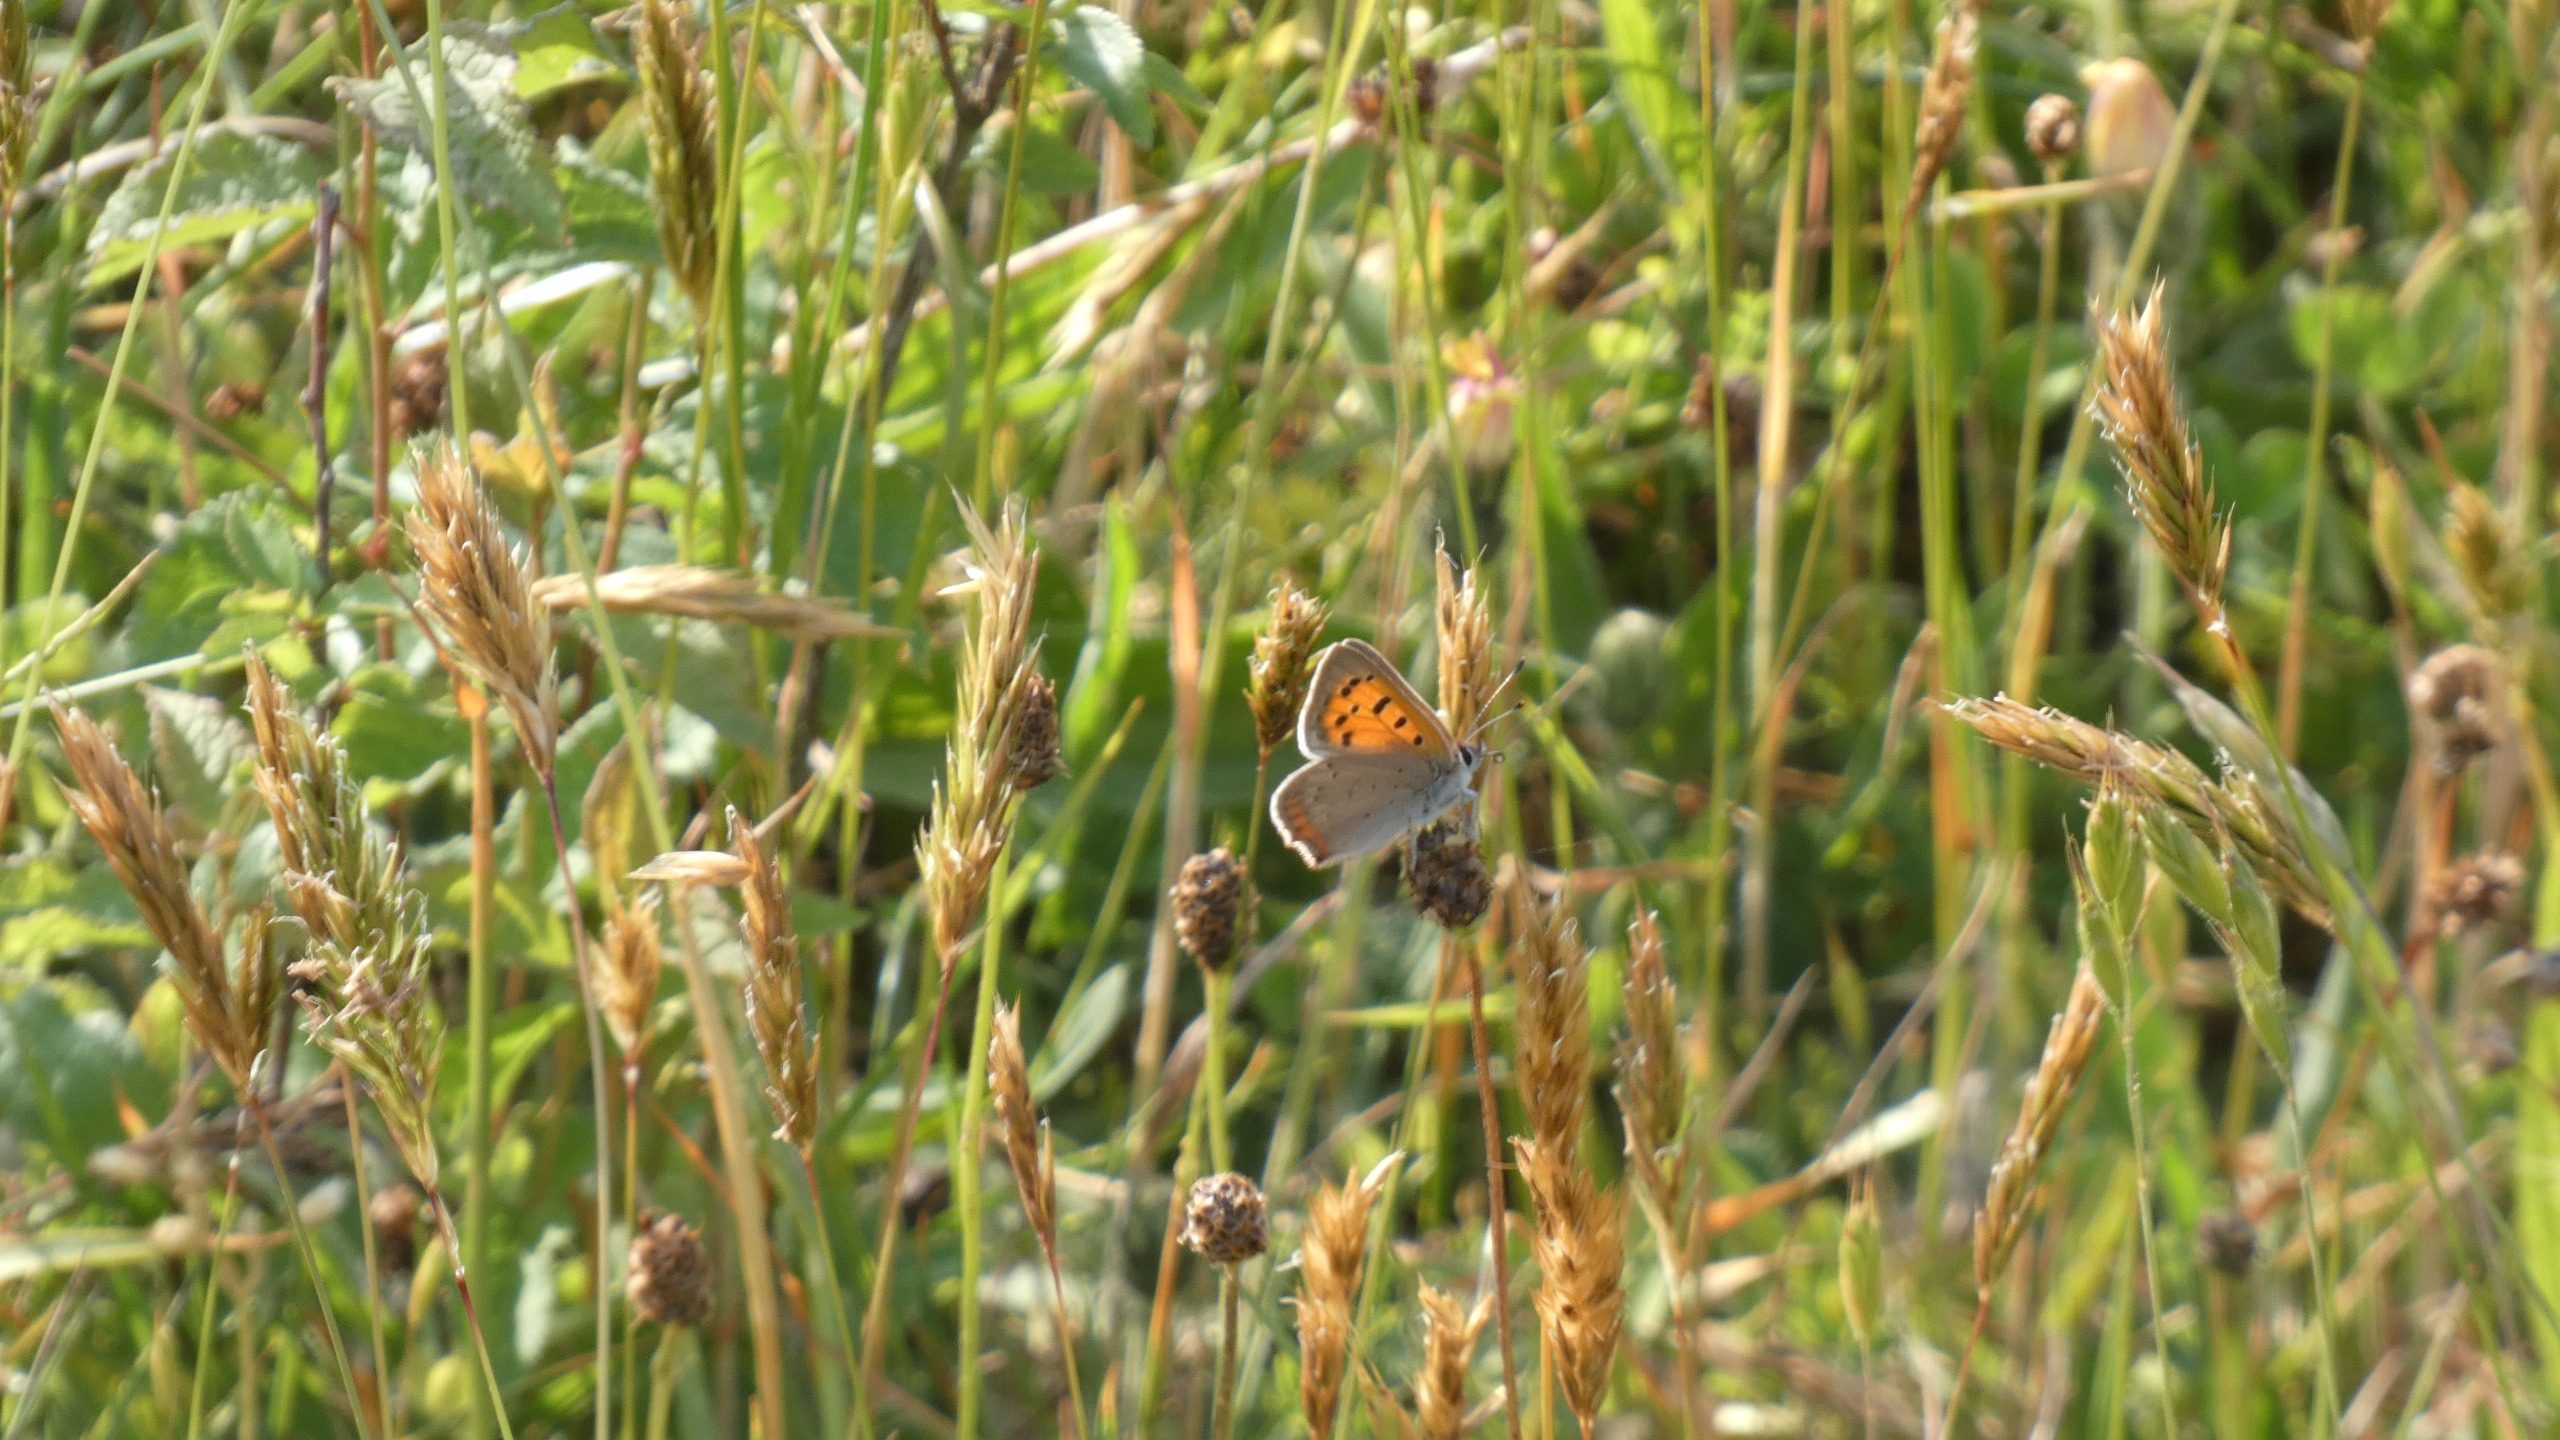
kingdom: Animalia
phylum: Arthropoda
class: Insecta
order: Lepidoptera
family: Lycaenidae
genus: Lycaena
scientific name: Lycaena phlaeas
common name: Lille ildfugl
